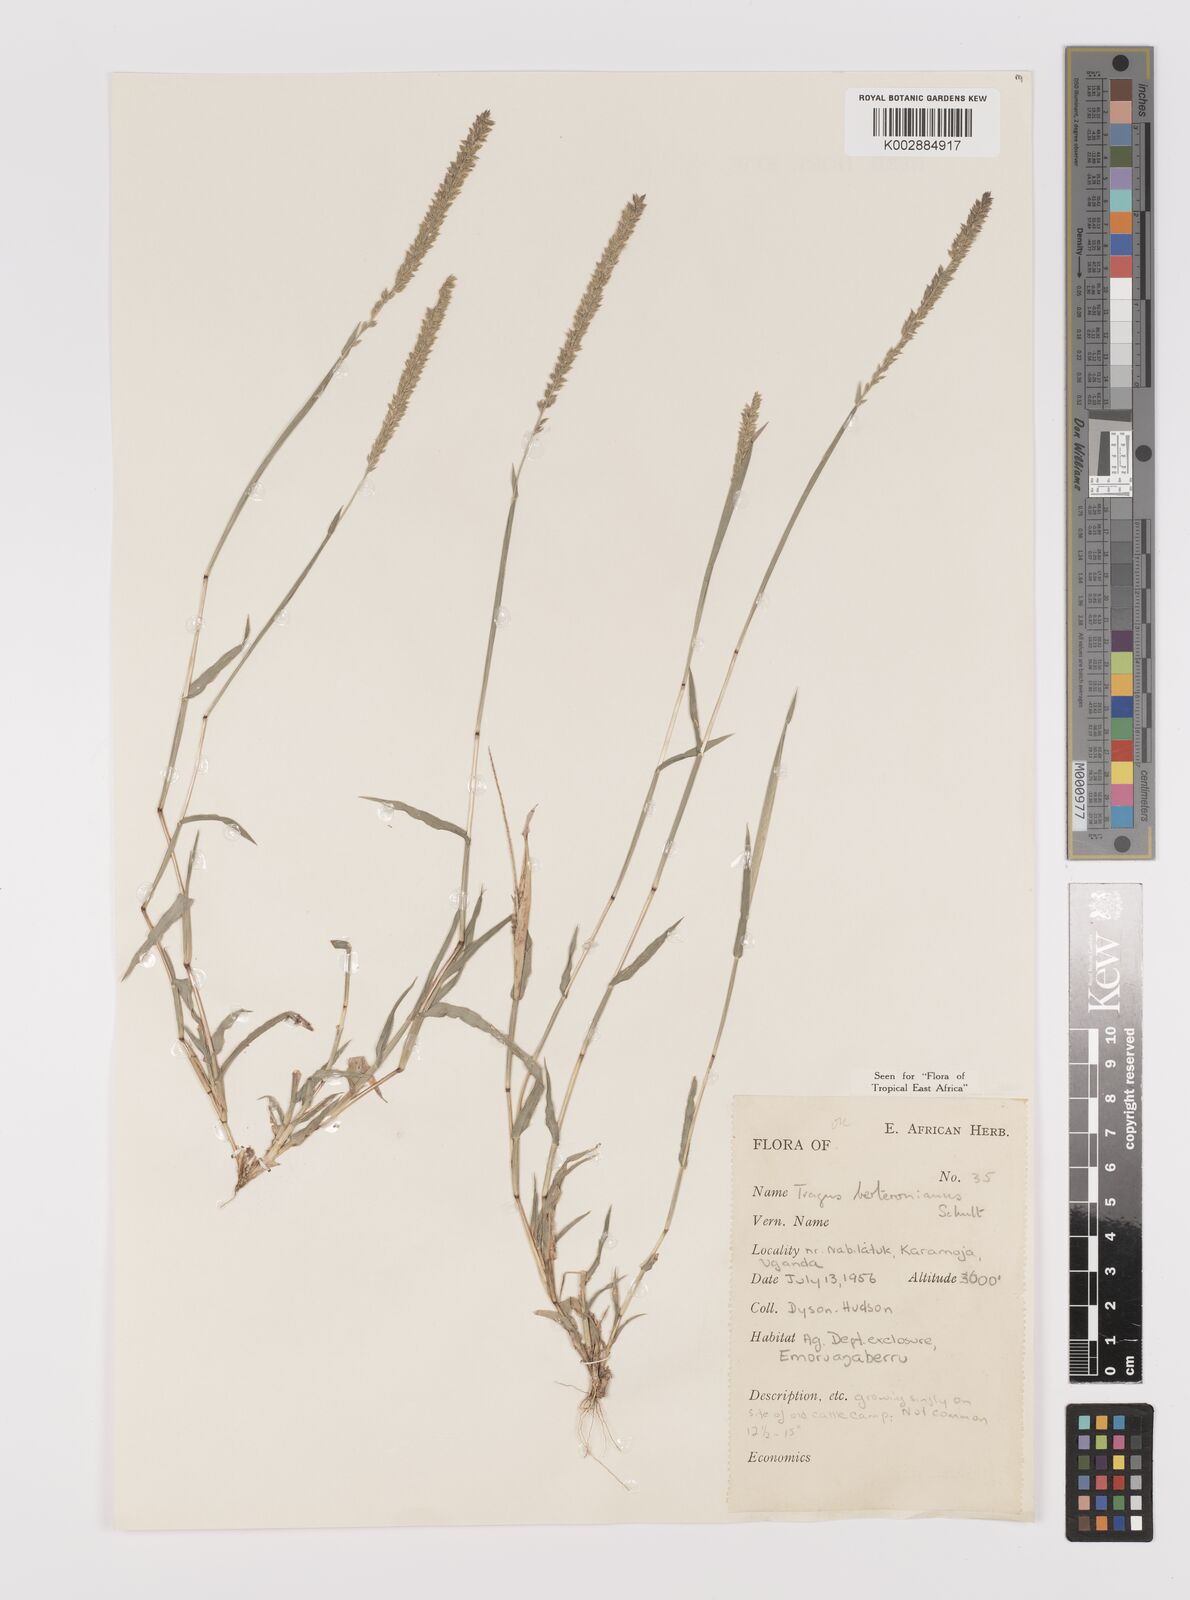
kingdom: Plantae
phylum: Tracheophyta
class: Liliopsida
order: Poales
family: Poaceae
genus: Tragus
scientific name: Tragus berteronianus
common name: African bur-grass
